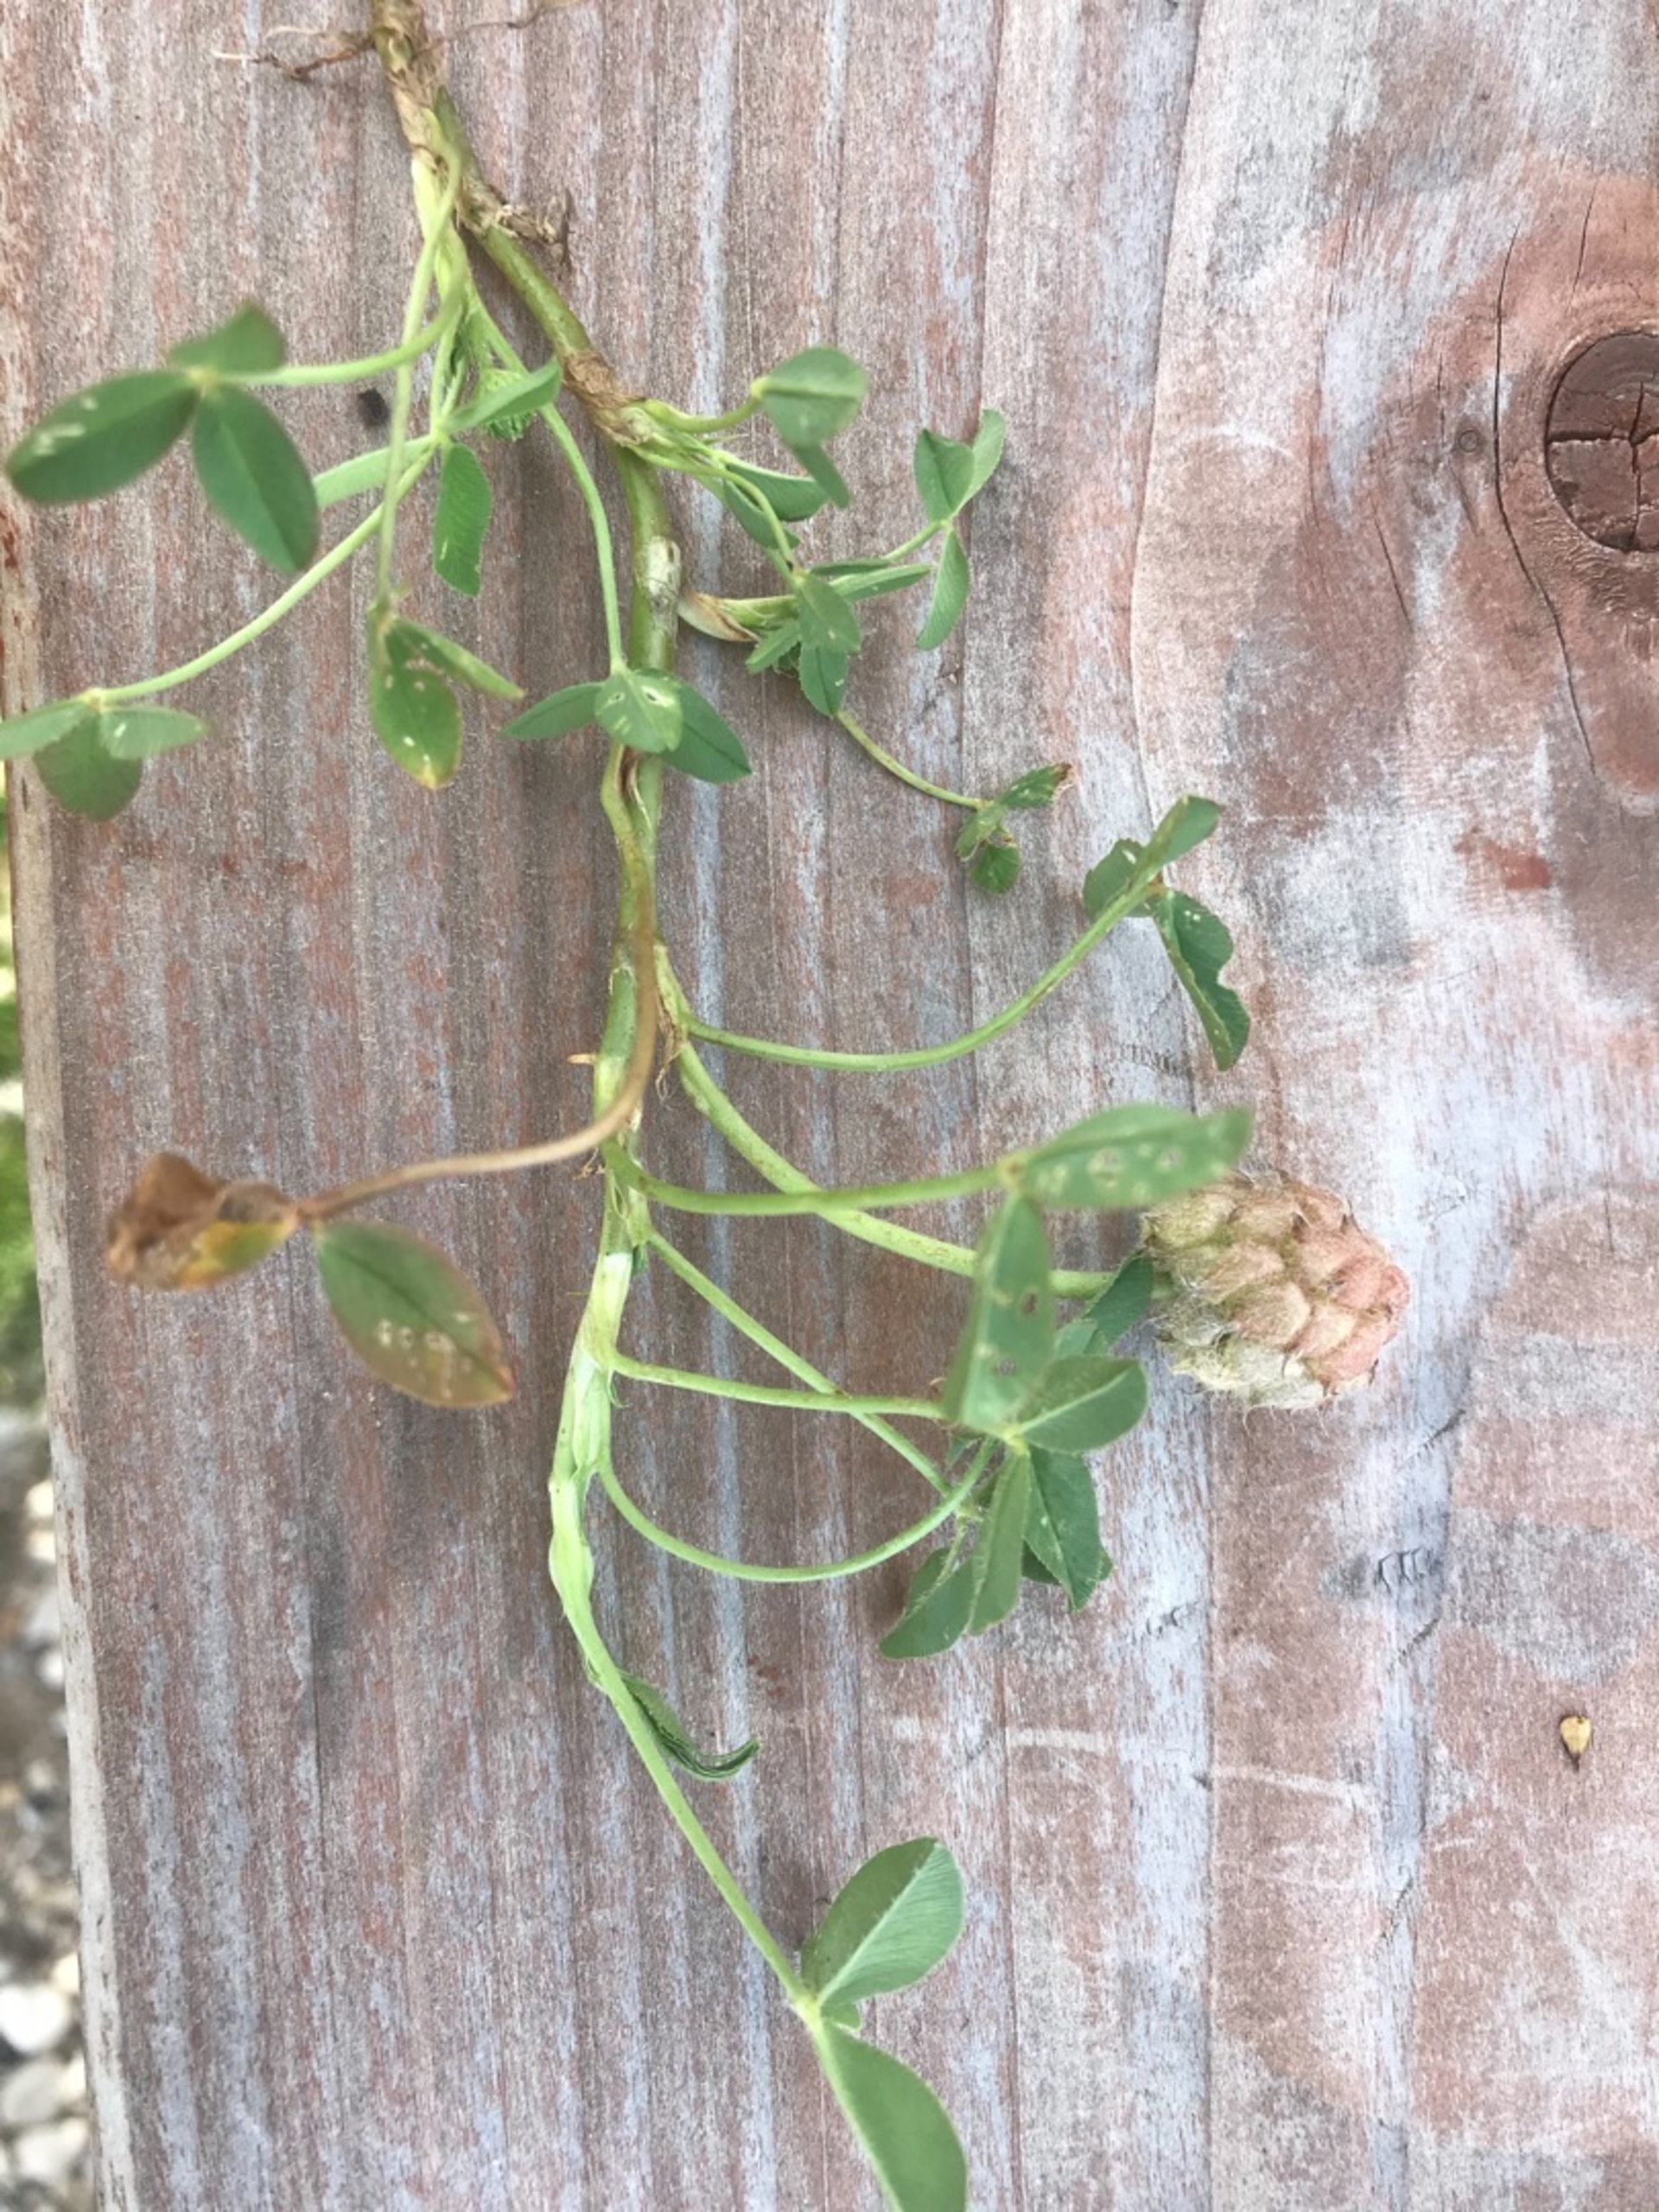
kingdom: Plantae
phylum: Tracheophyta
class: Magnoliopsida
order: Fabales
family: Fabaceae
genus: Trifolium
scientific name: Trifolium fragiferum
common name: Jordbær-kløver
